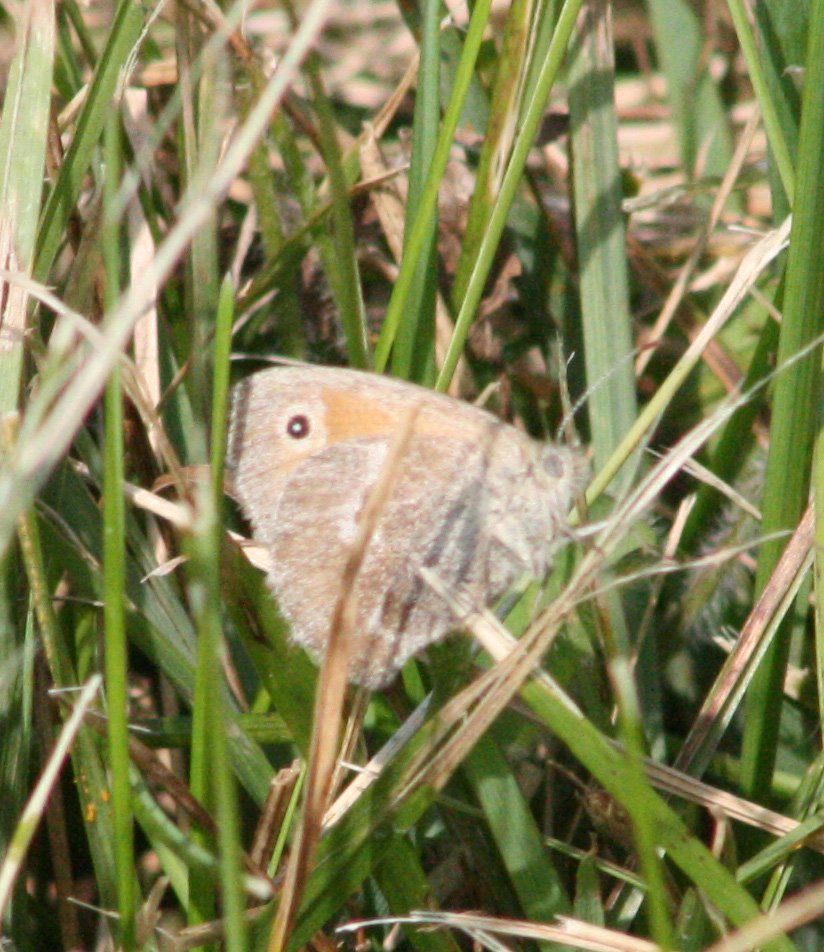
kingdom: Animalia
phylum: Arthropoda
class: Insecta
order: Lepidoptera
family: Nymphalidae
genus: Coenonympha
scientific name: Coenonympha tullia
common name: Large Heath
